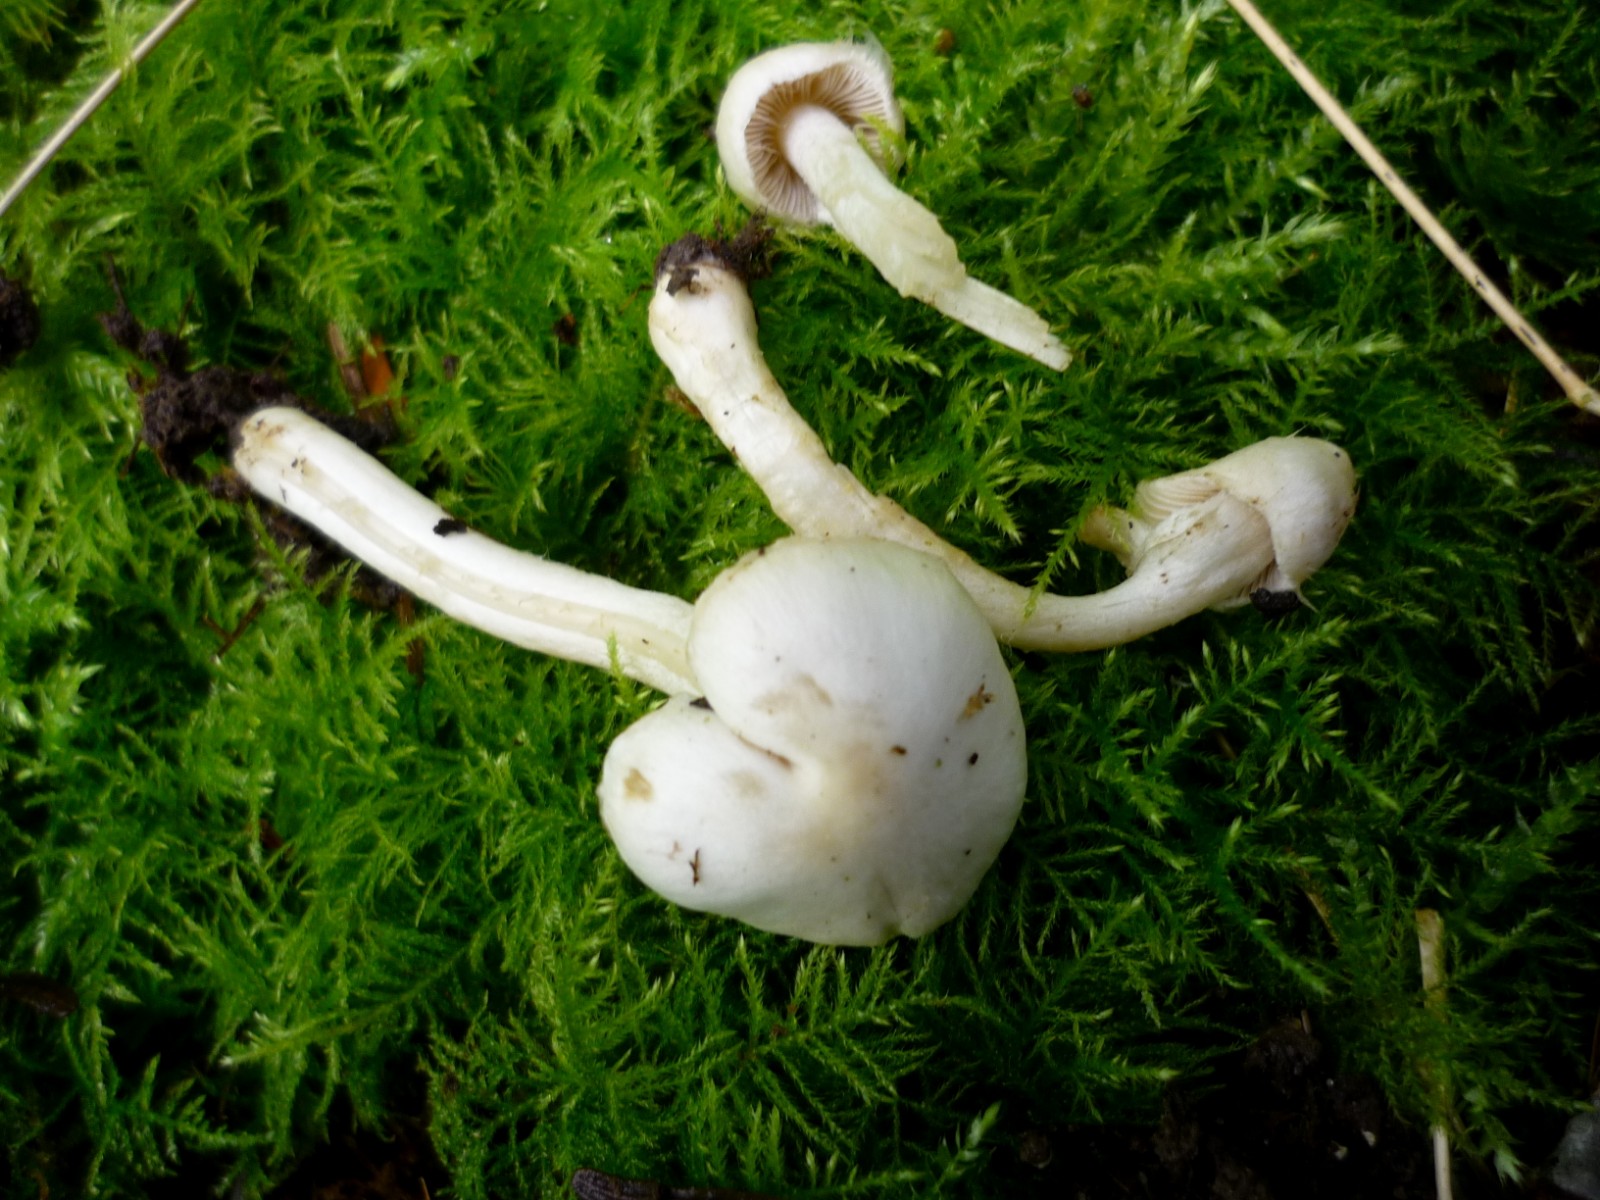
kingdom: Fungi
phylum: Basidiomycota
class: Agaricomycetes
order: Agaricales
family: Inocybaceae
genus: Inocybe
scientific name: Inocybe
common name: almindelig trævlhat
